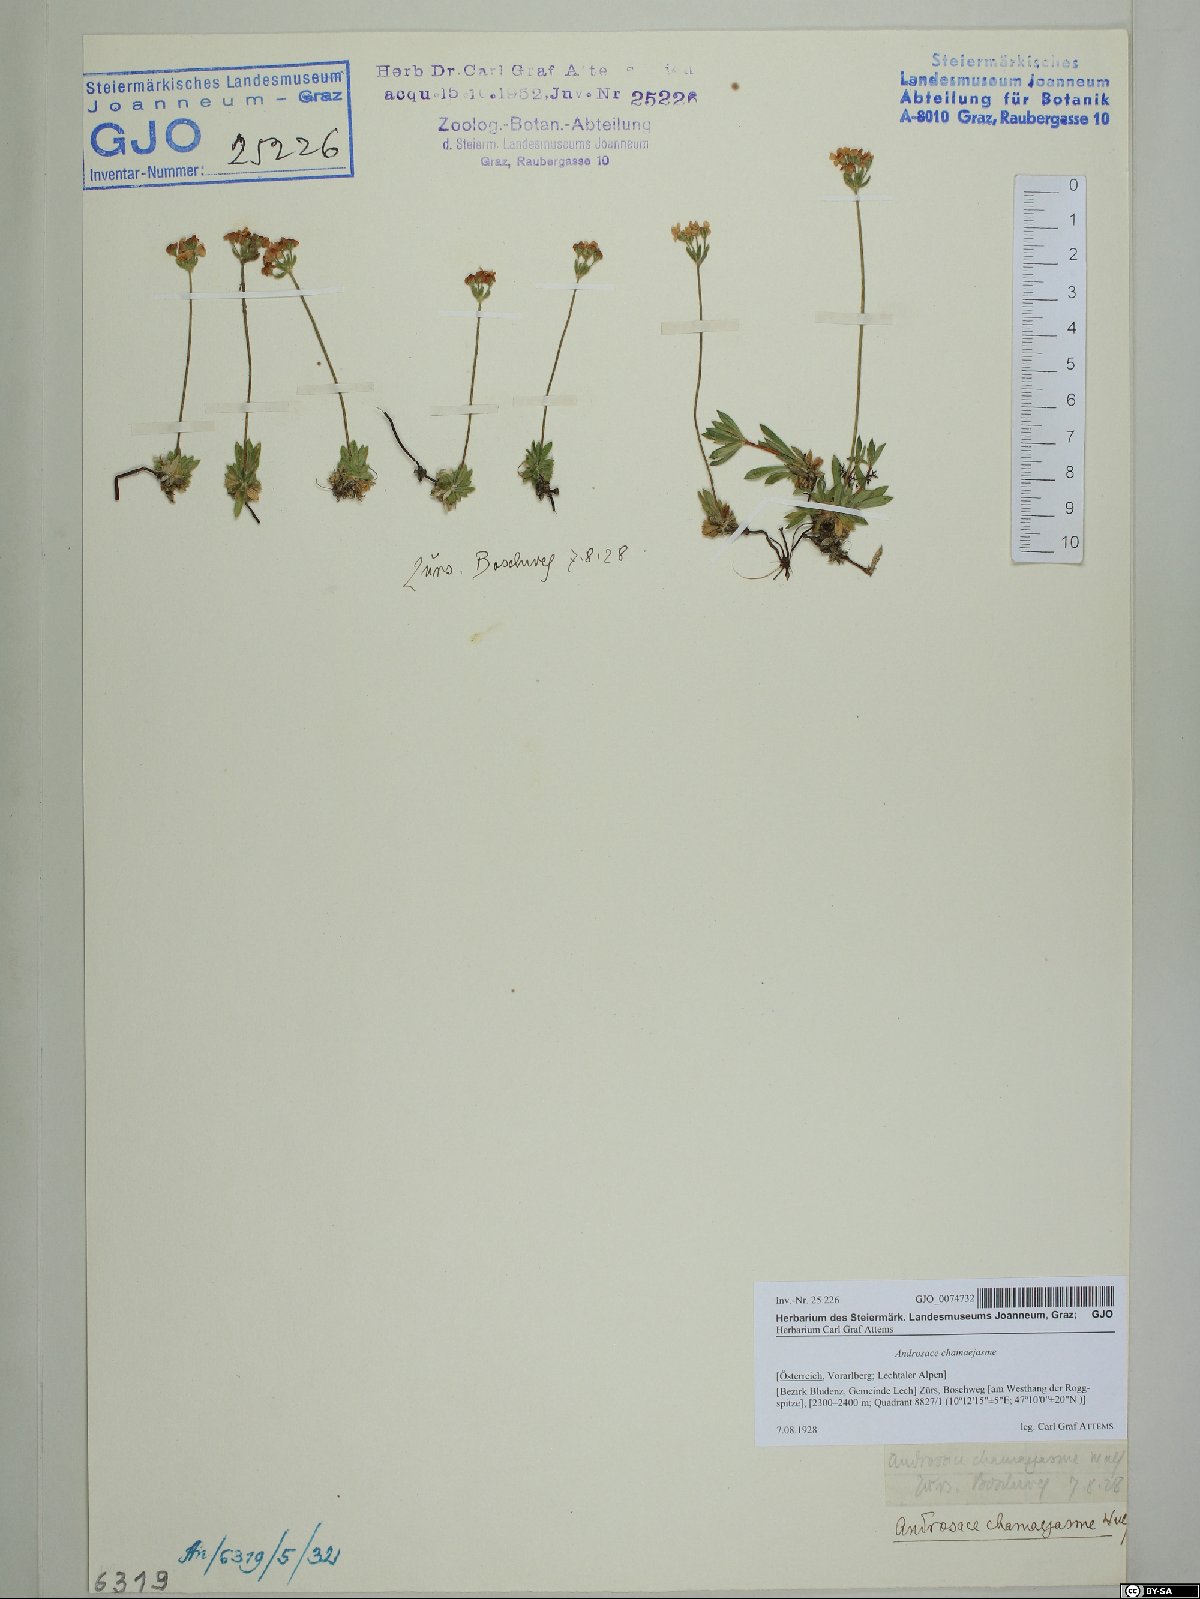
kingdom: Plantae
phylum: Tracheophyta
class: Magnoliopsida
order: Ericales
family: Primulaceae
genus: Androsace
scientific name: Androsace chamaejasme
